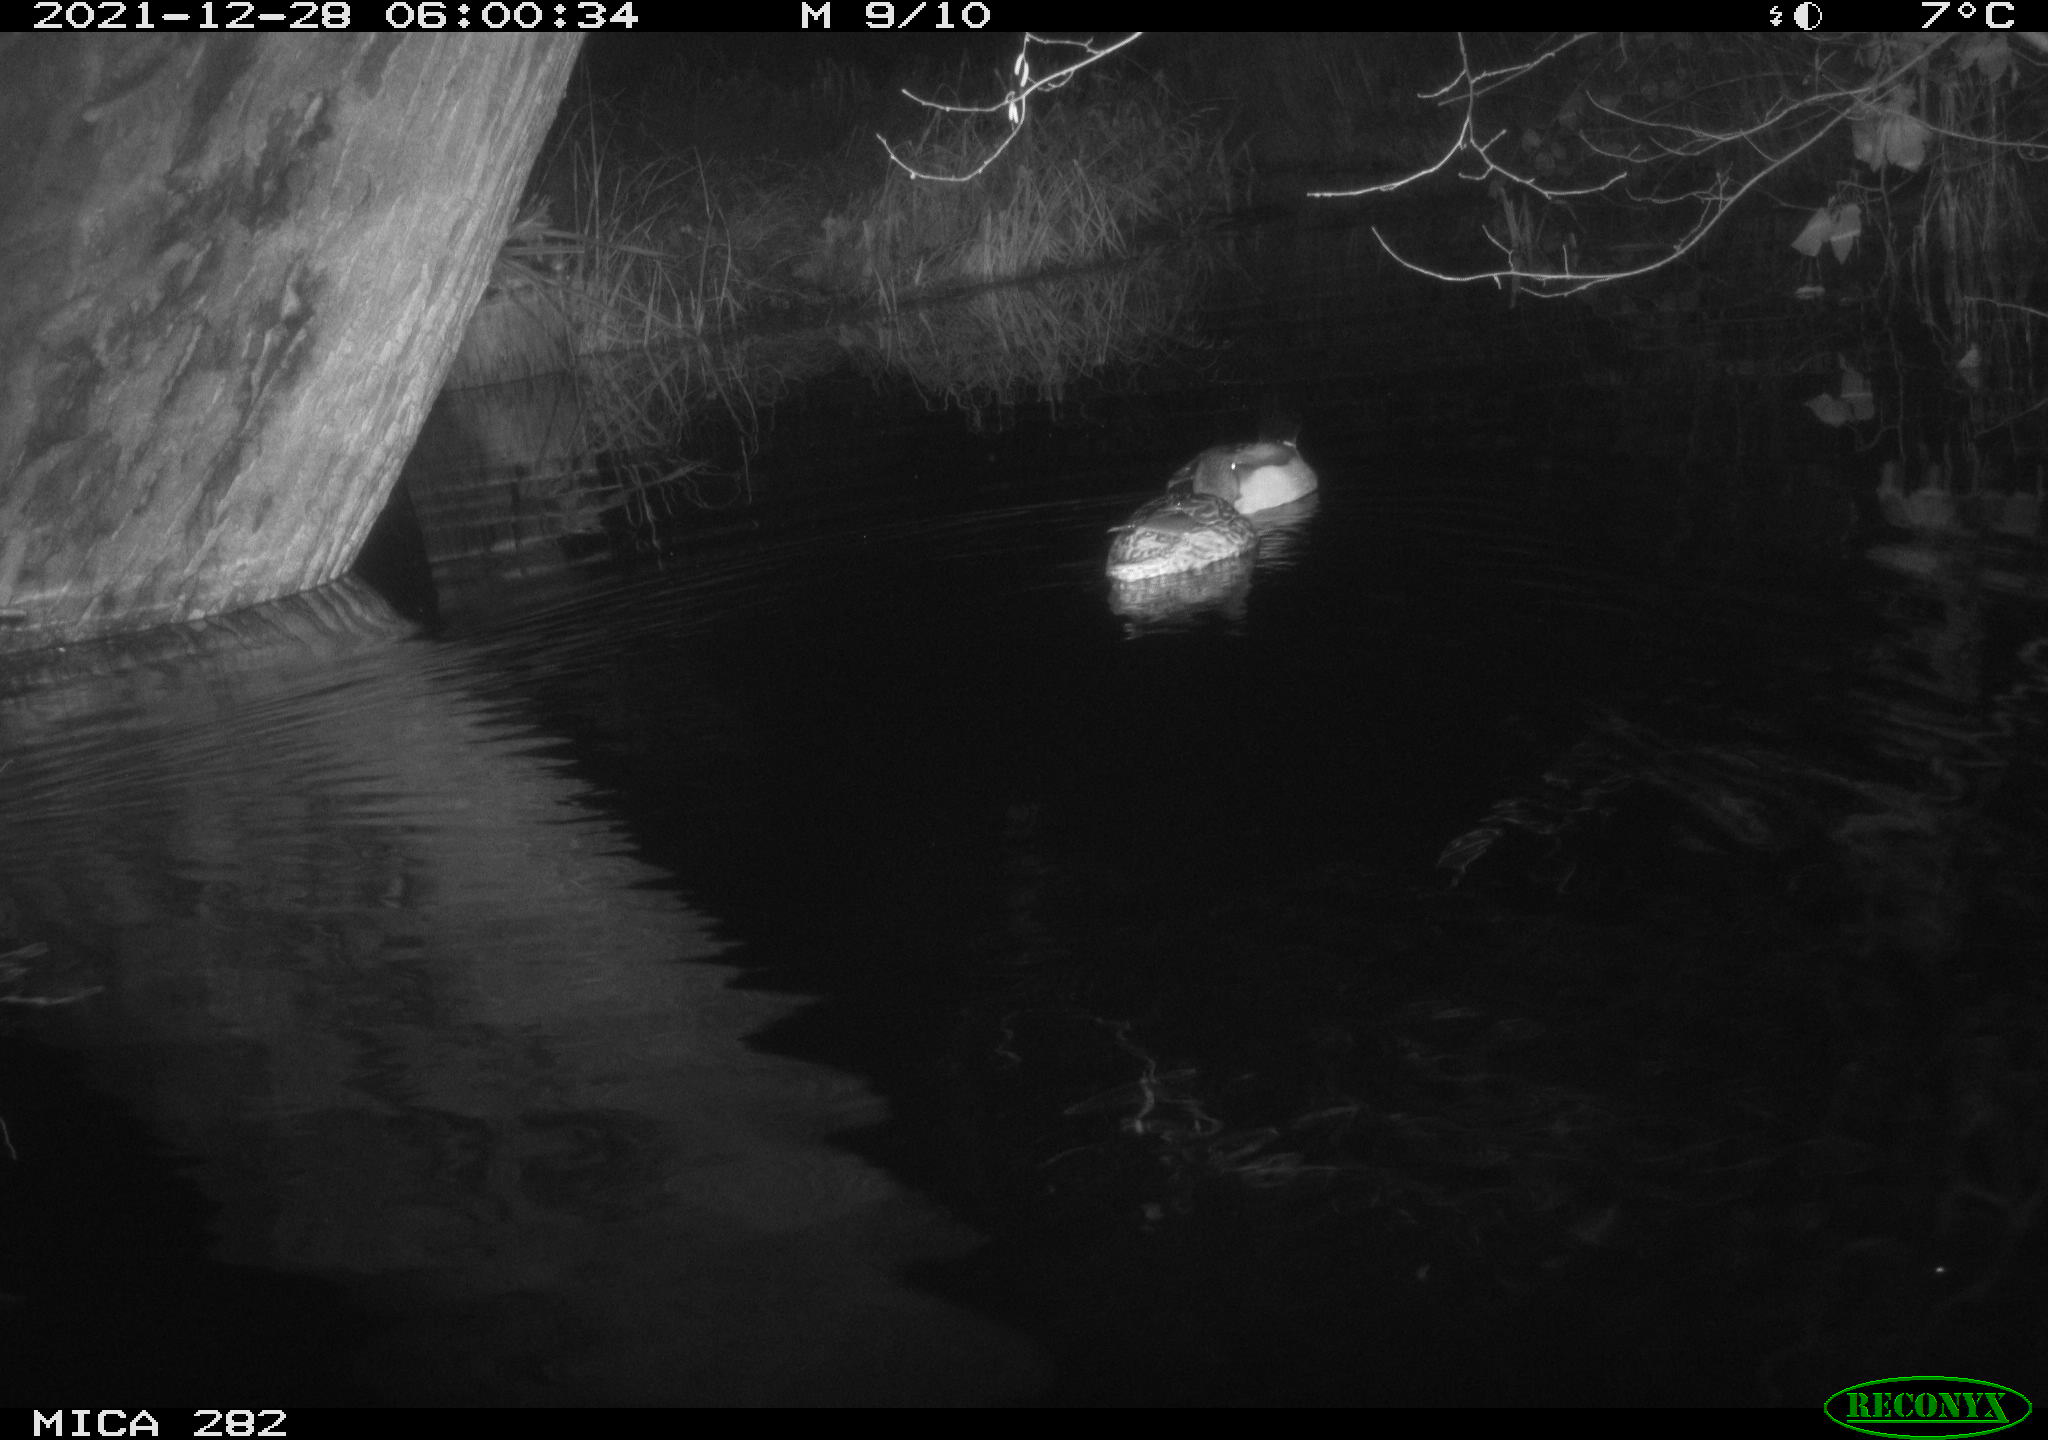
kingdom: Animalia
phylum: Chordata
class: Aves
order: Anseriformes
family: Anatidae
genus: Anas
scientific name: Anas platyrhynchos
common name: Mallard
